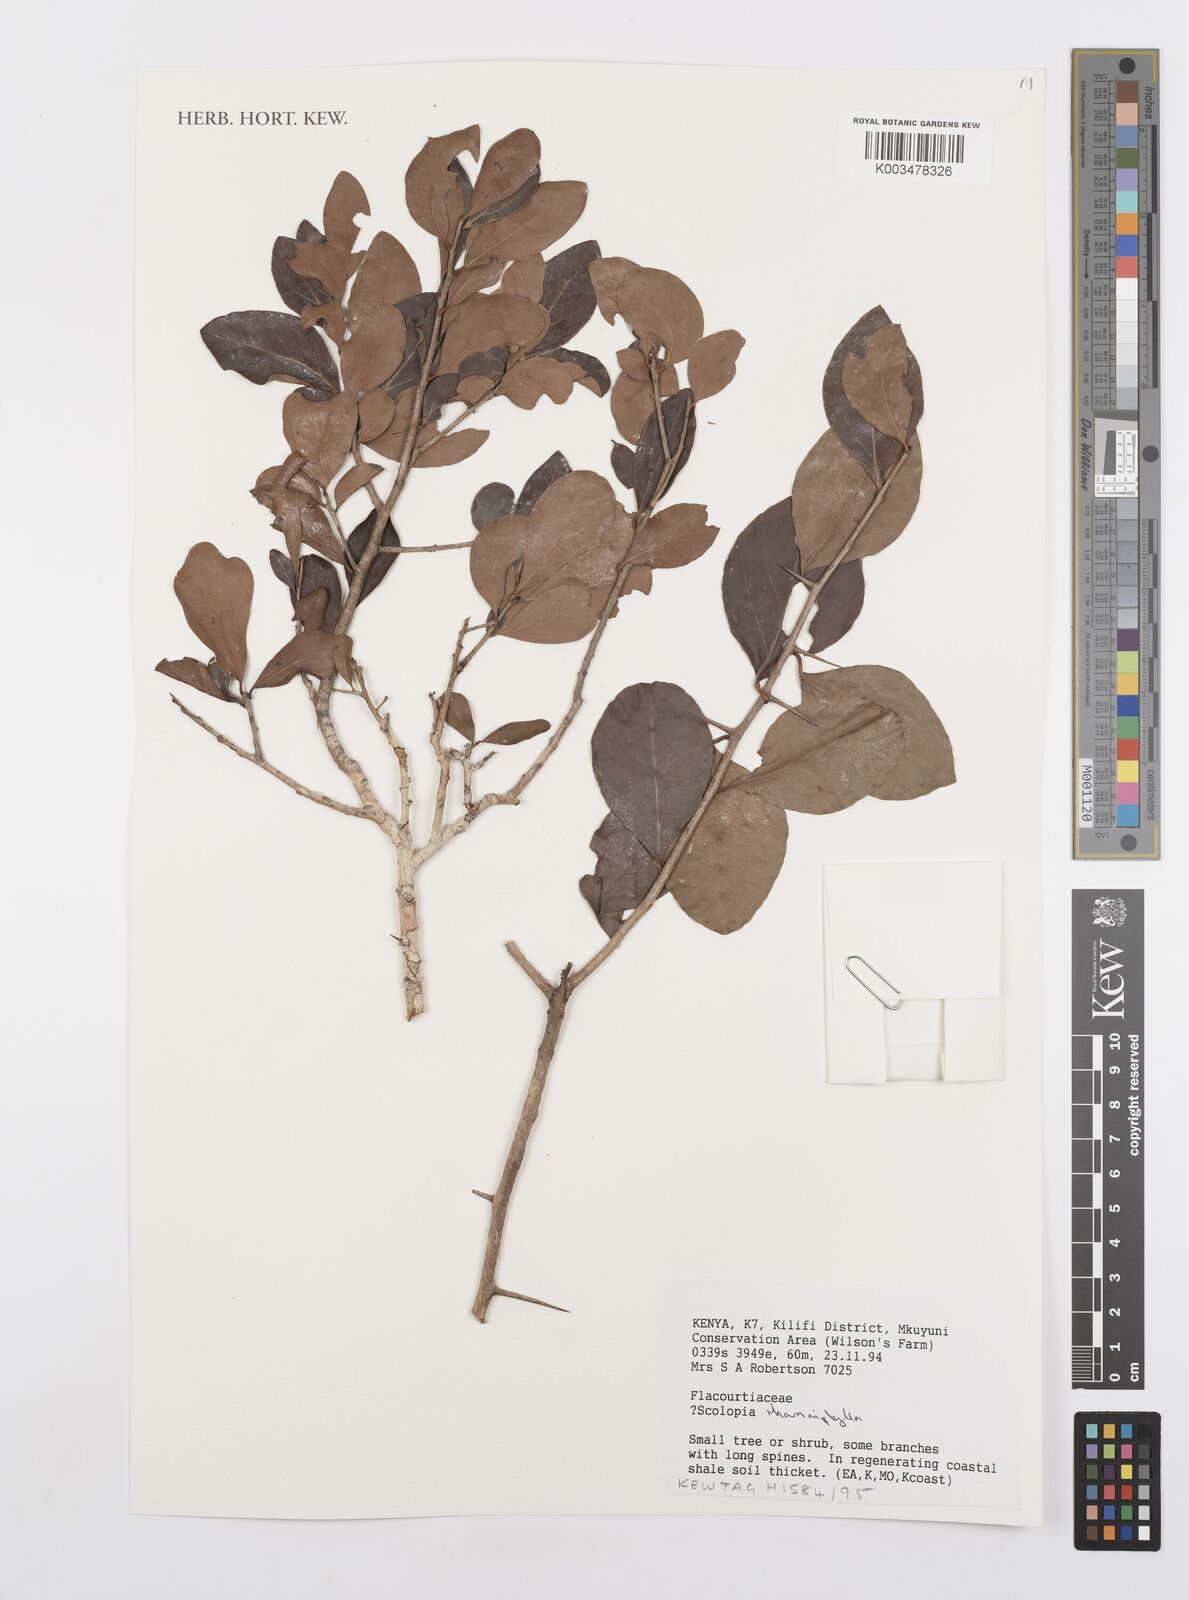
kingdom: Plantae
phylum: Tracheophyta
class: Magnoliopsida
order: Malpighiales
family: Salicaceae
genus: Scolopia
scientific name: Scolopia rhamniphylla
